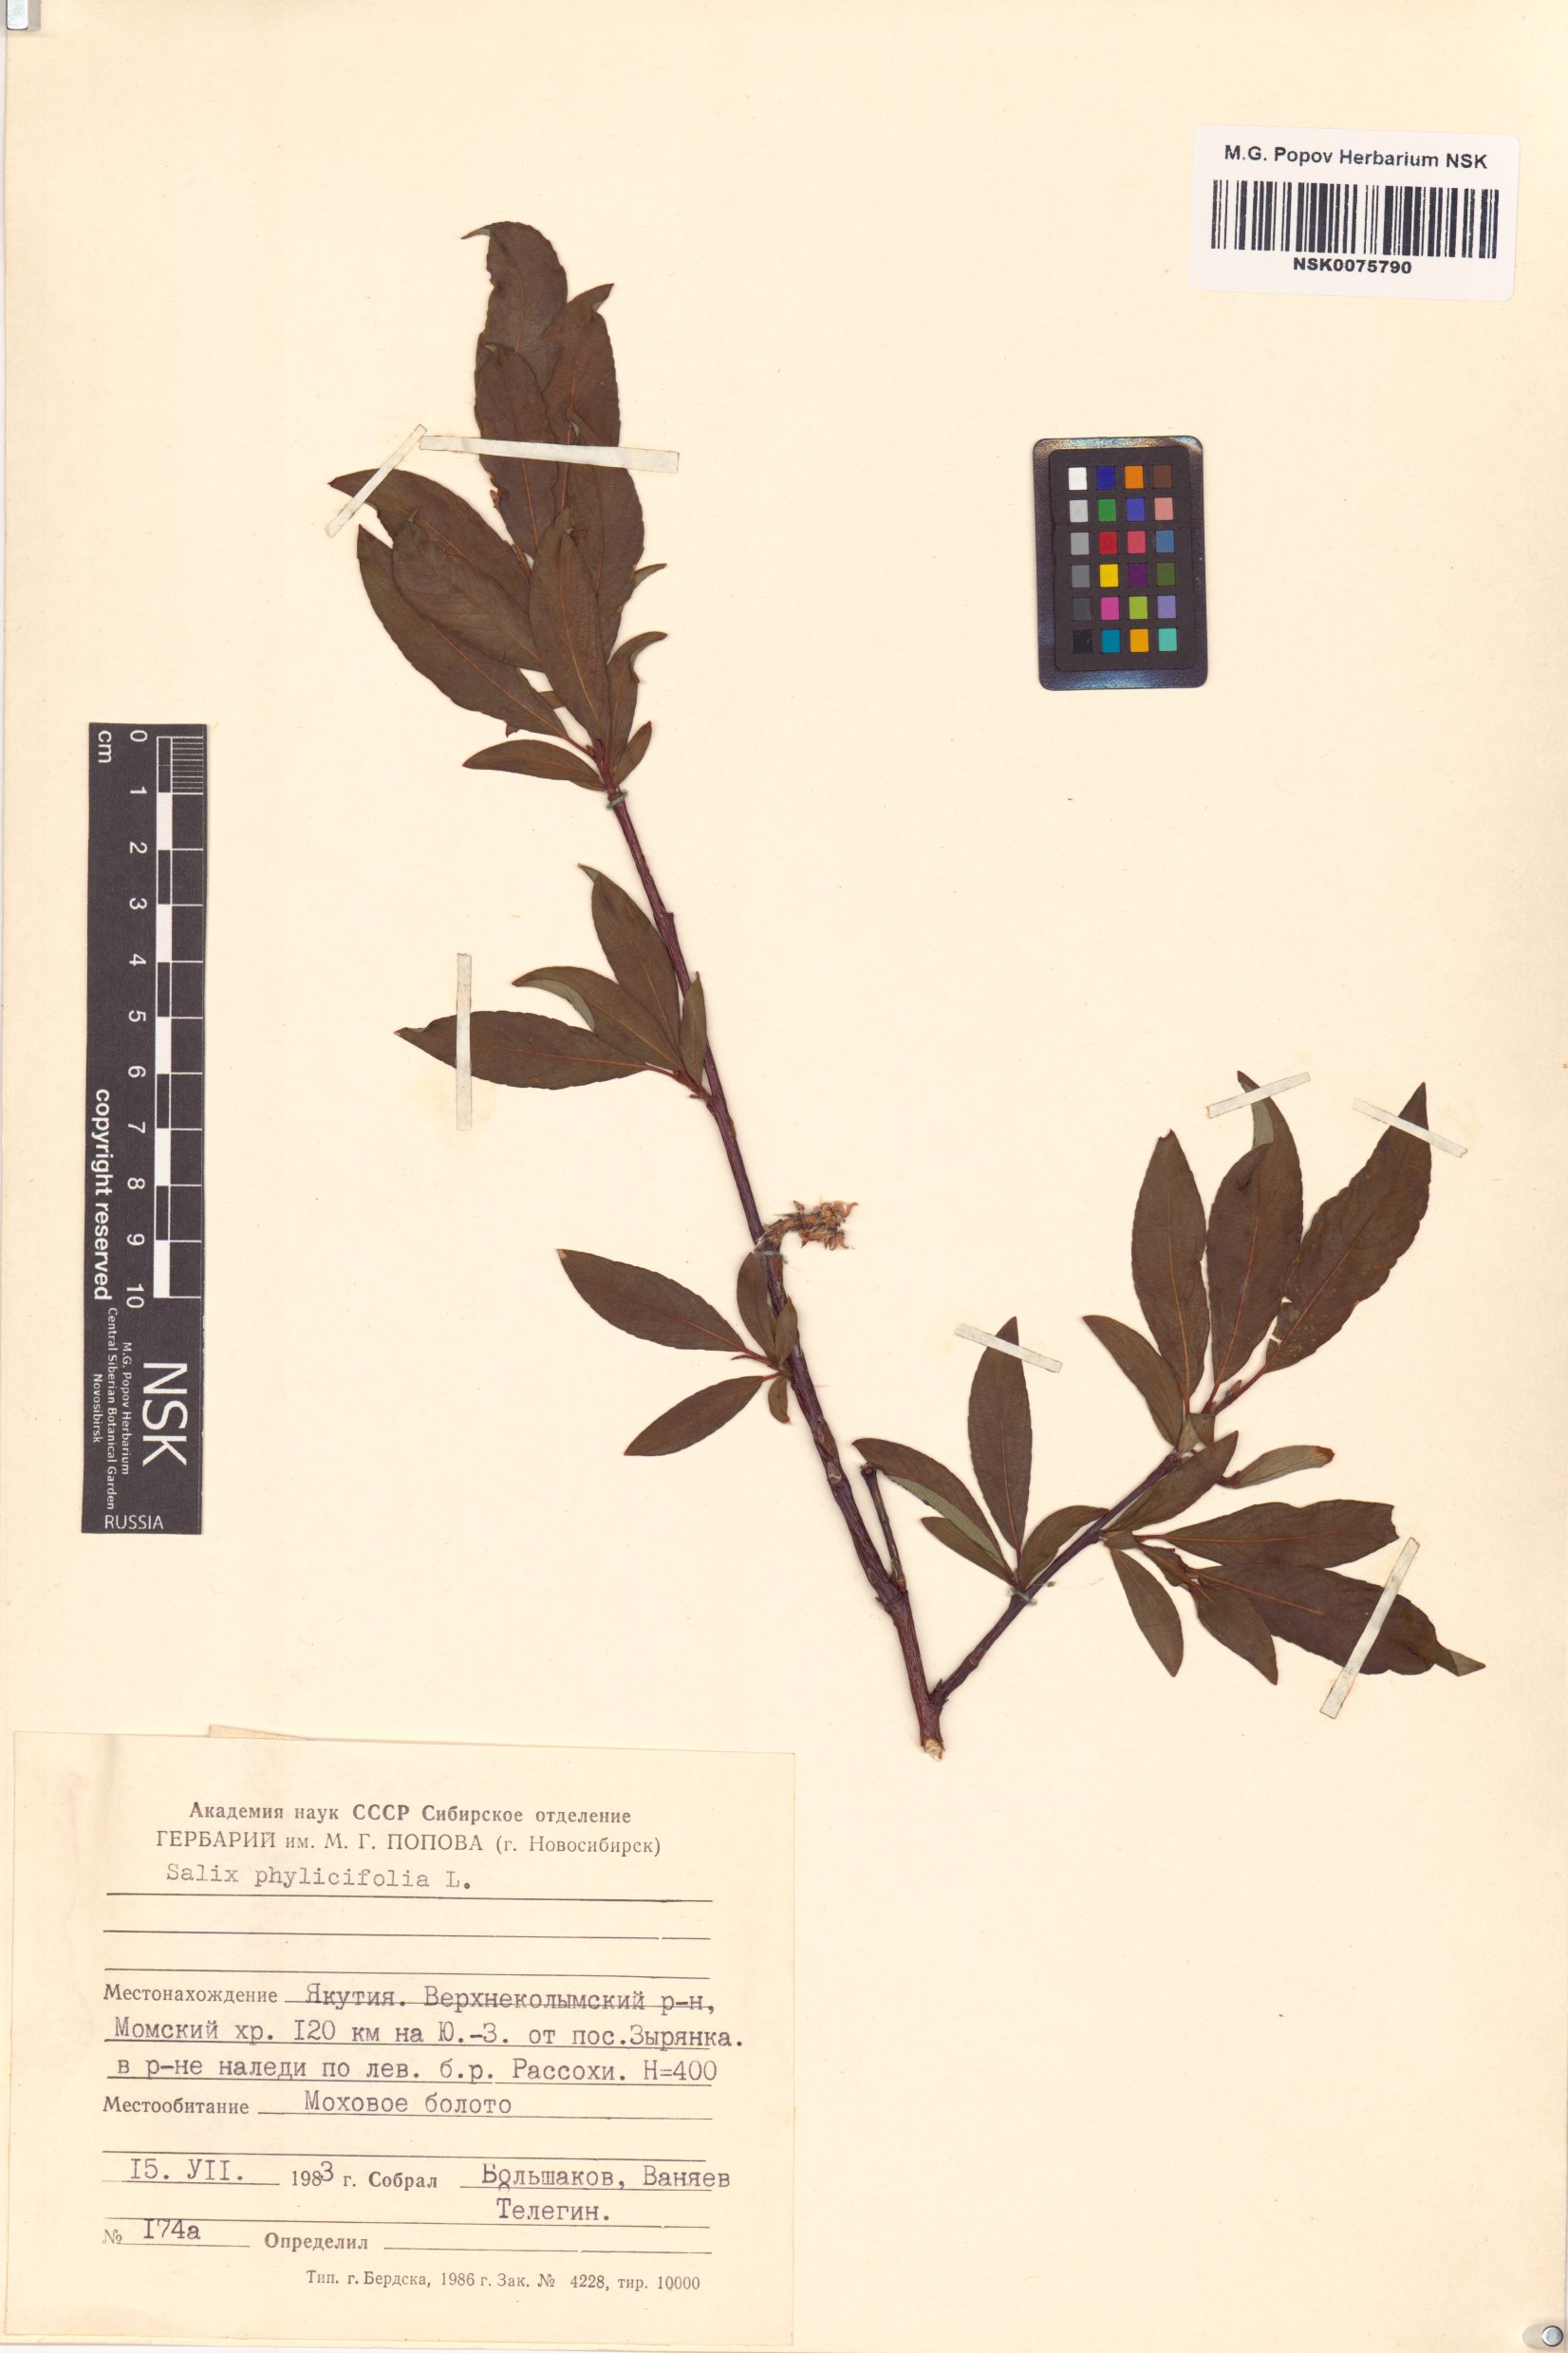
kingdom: Plantae
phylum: Tracheophyta
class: Magnoliopsida
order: Malpighiales
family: Salicaceae
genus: Salix
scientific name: Salix phylicifolia
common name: Tea-leaved willow
